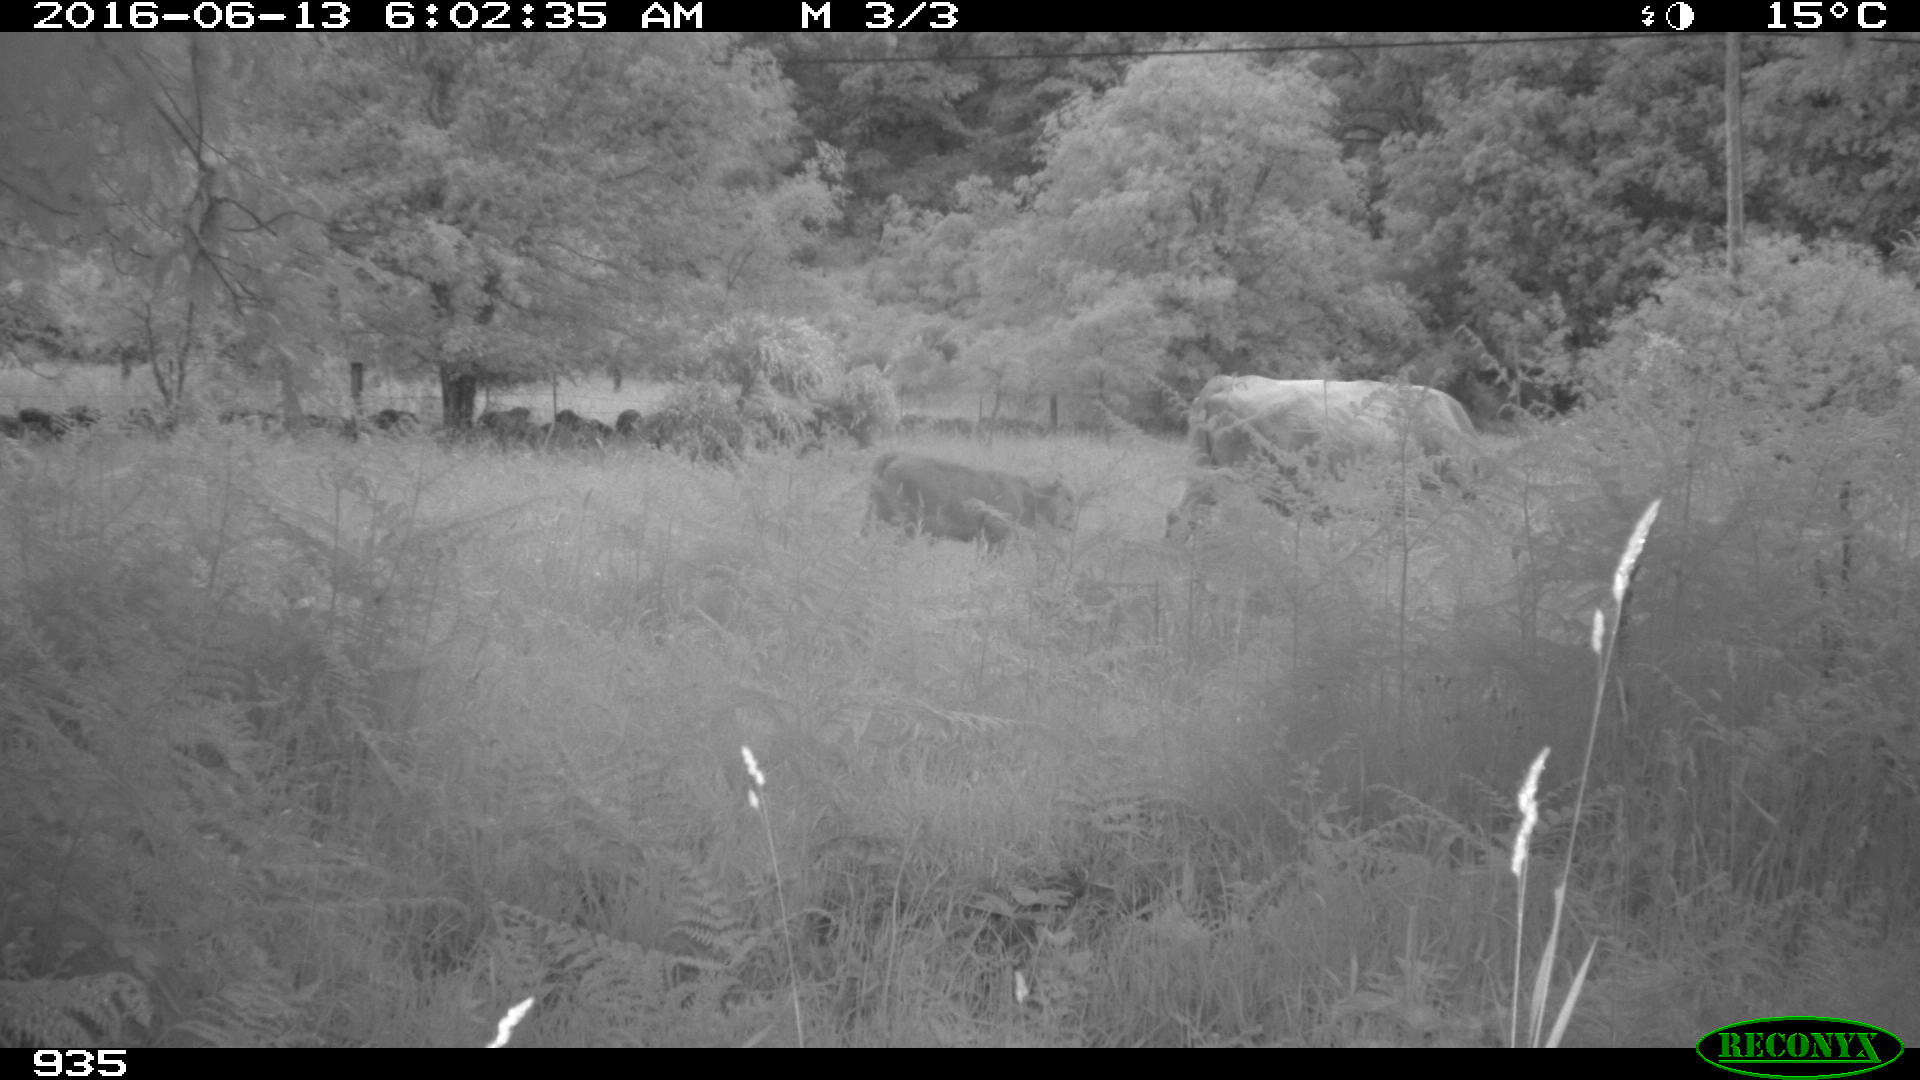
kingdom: Animalia
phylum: Chordata
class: Mammalia
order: Artiodactyla
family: Bovidae
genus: Bos
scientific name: Bos taurus
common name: Domesticated cattle
